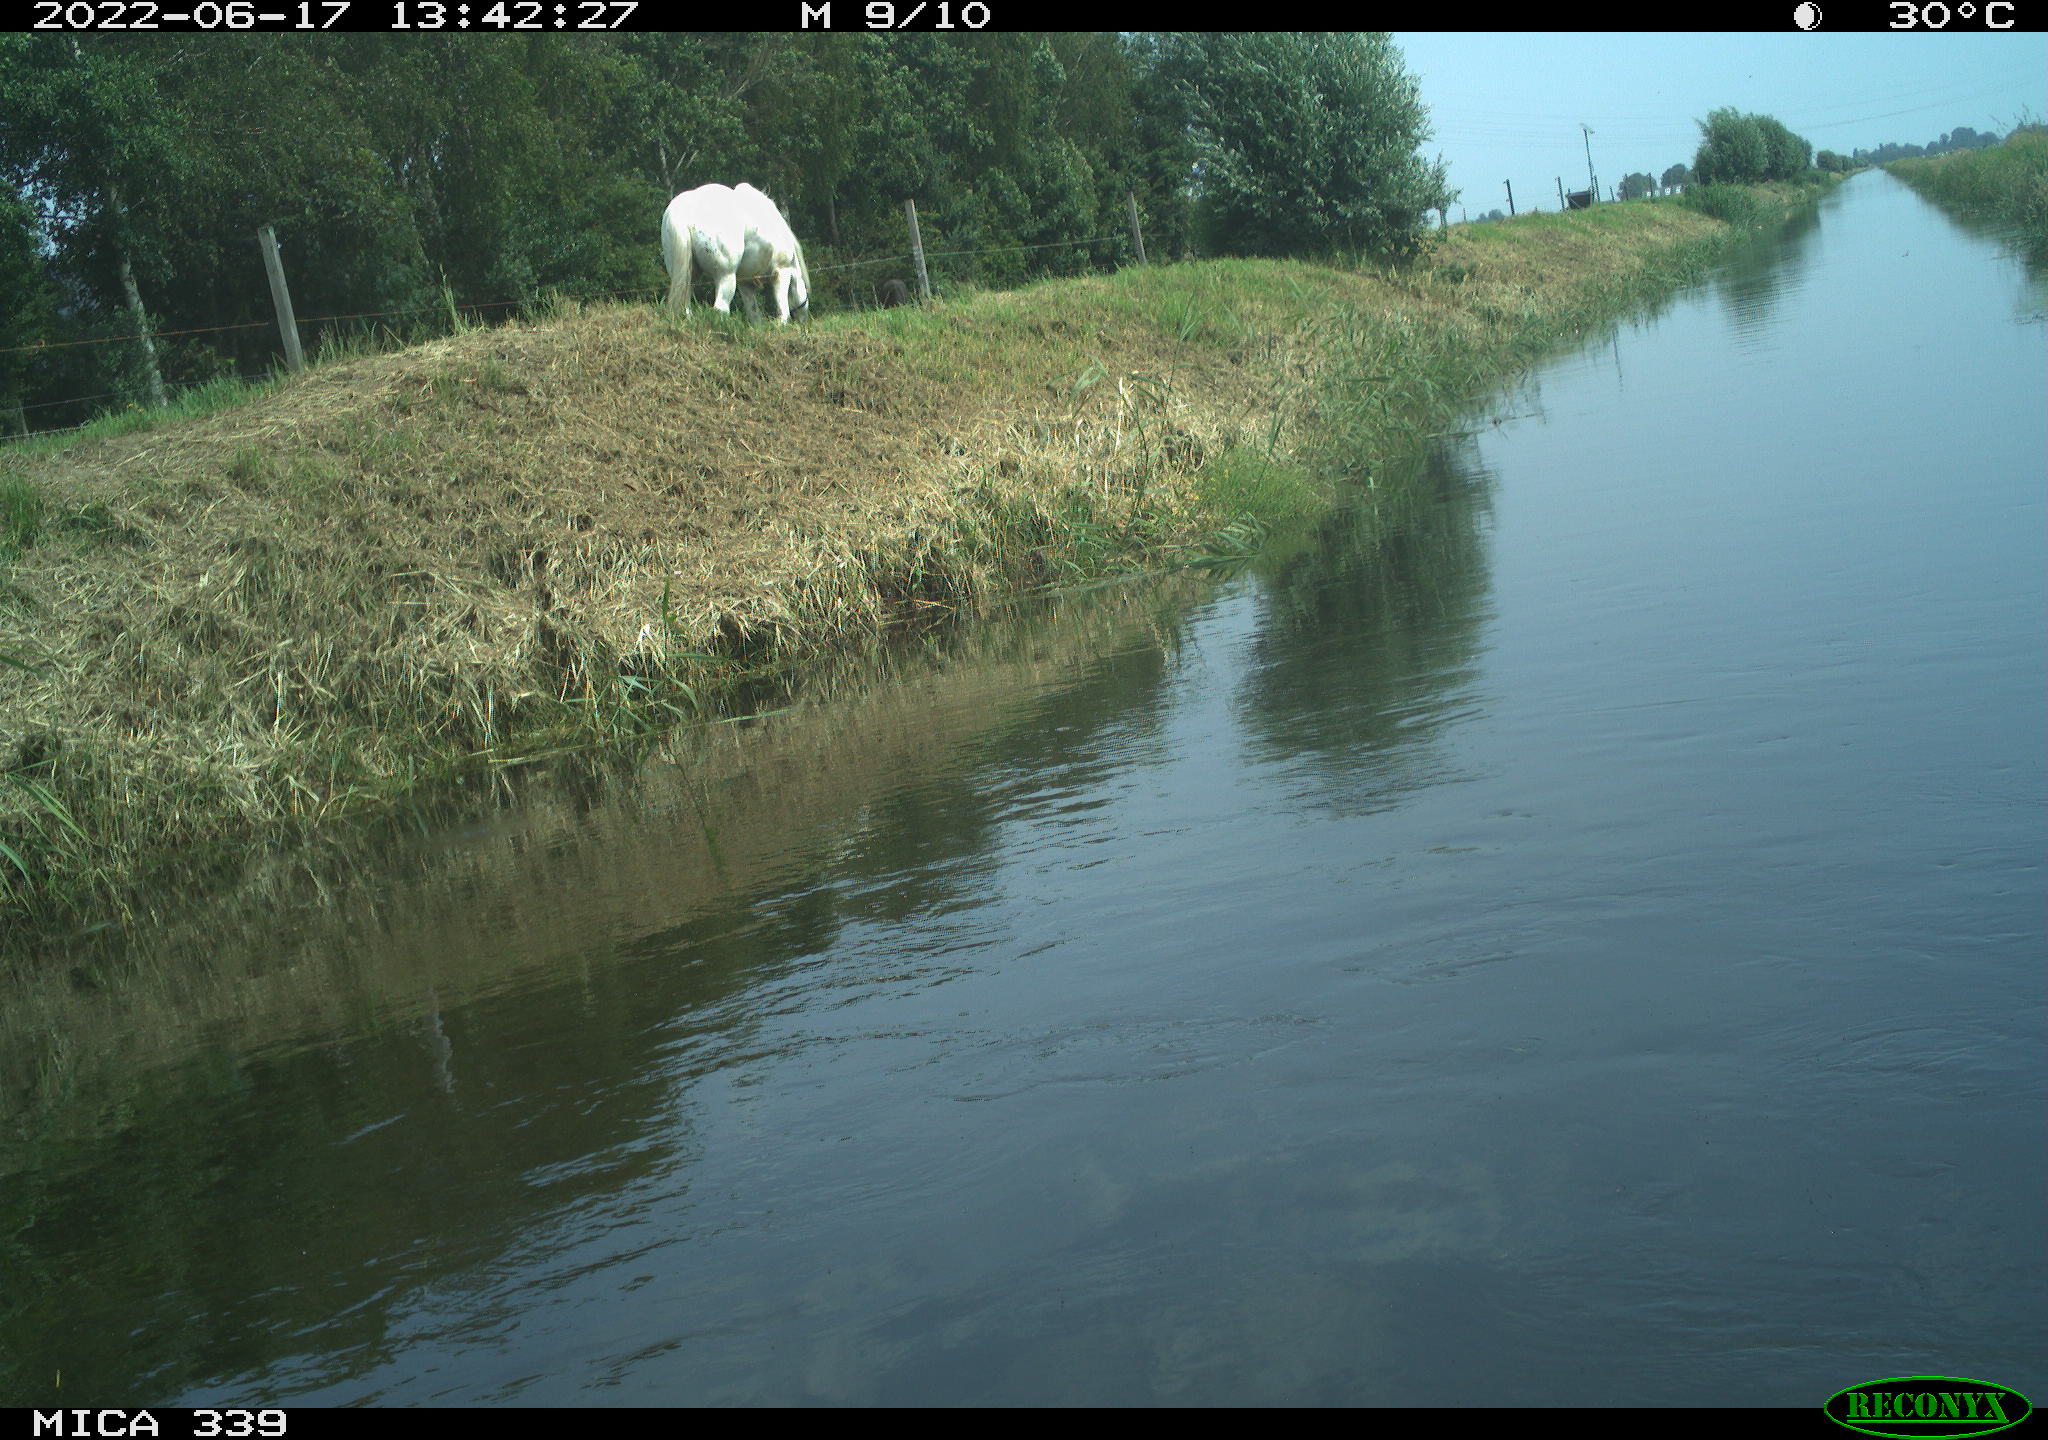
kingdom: Animalia
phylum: Chordata
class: Mammalia
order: Perissodactyla
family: Equidae
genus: Equus
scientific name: Equus caballus
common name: Horse
